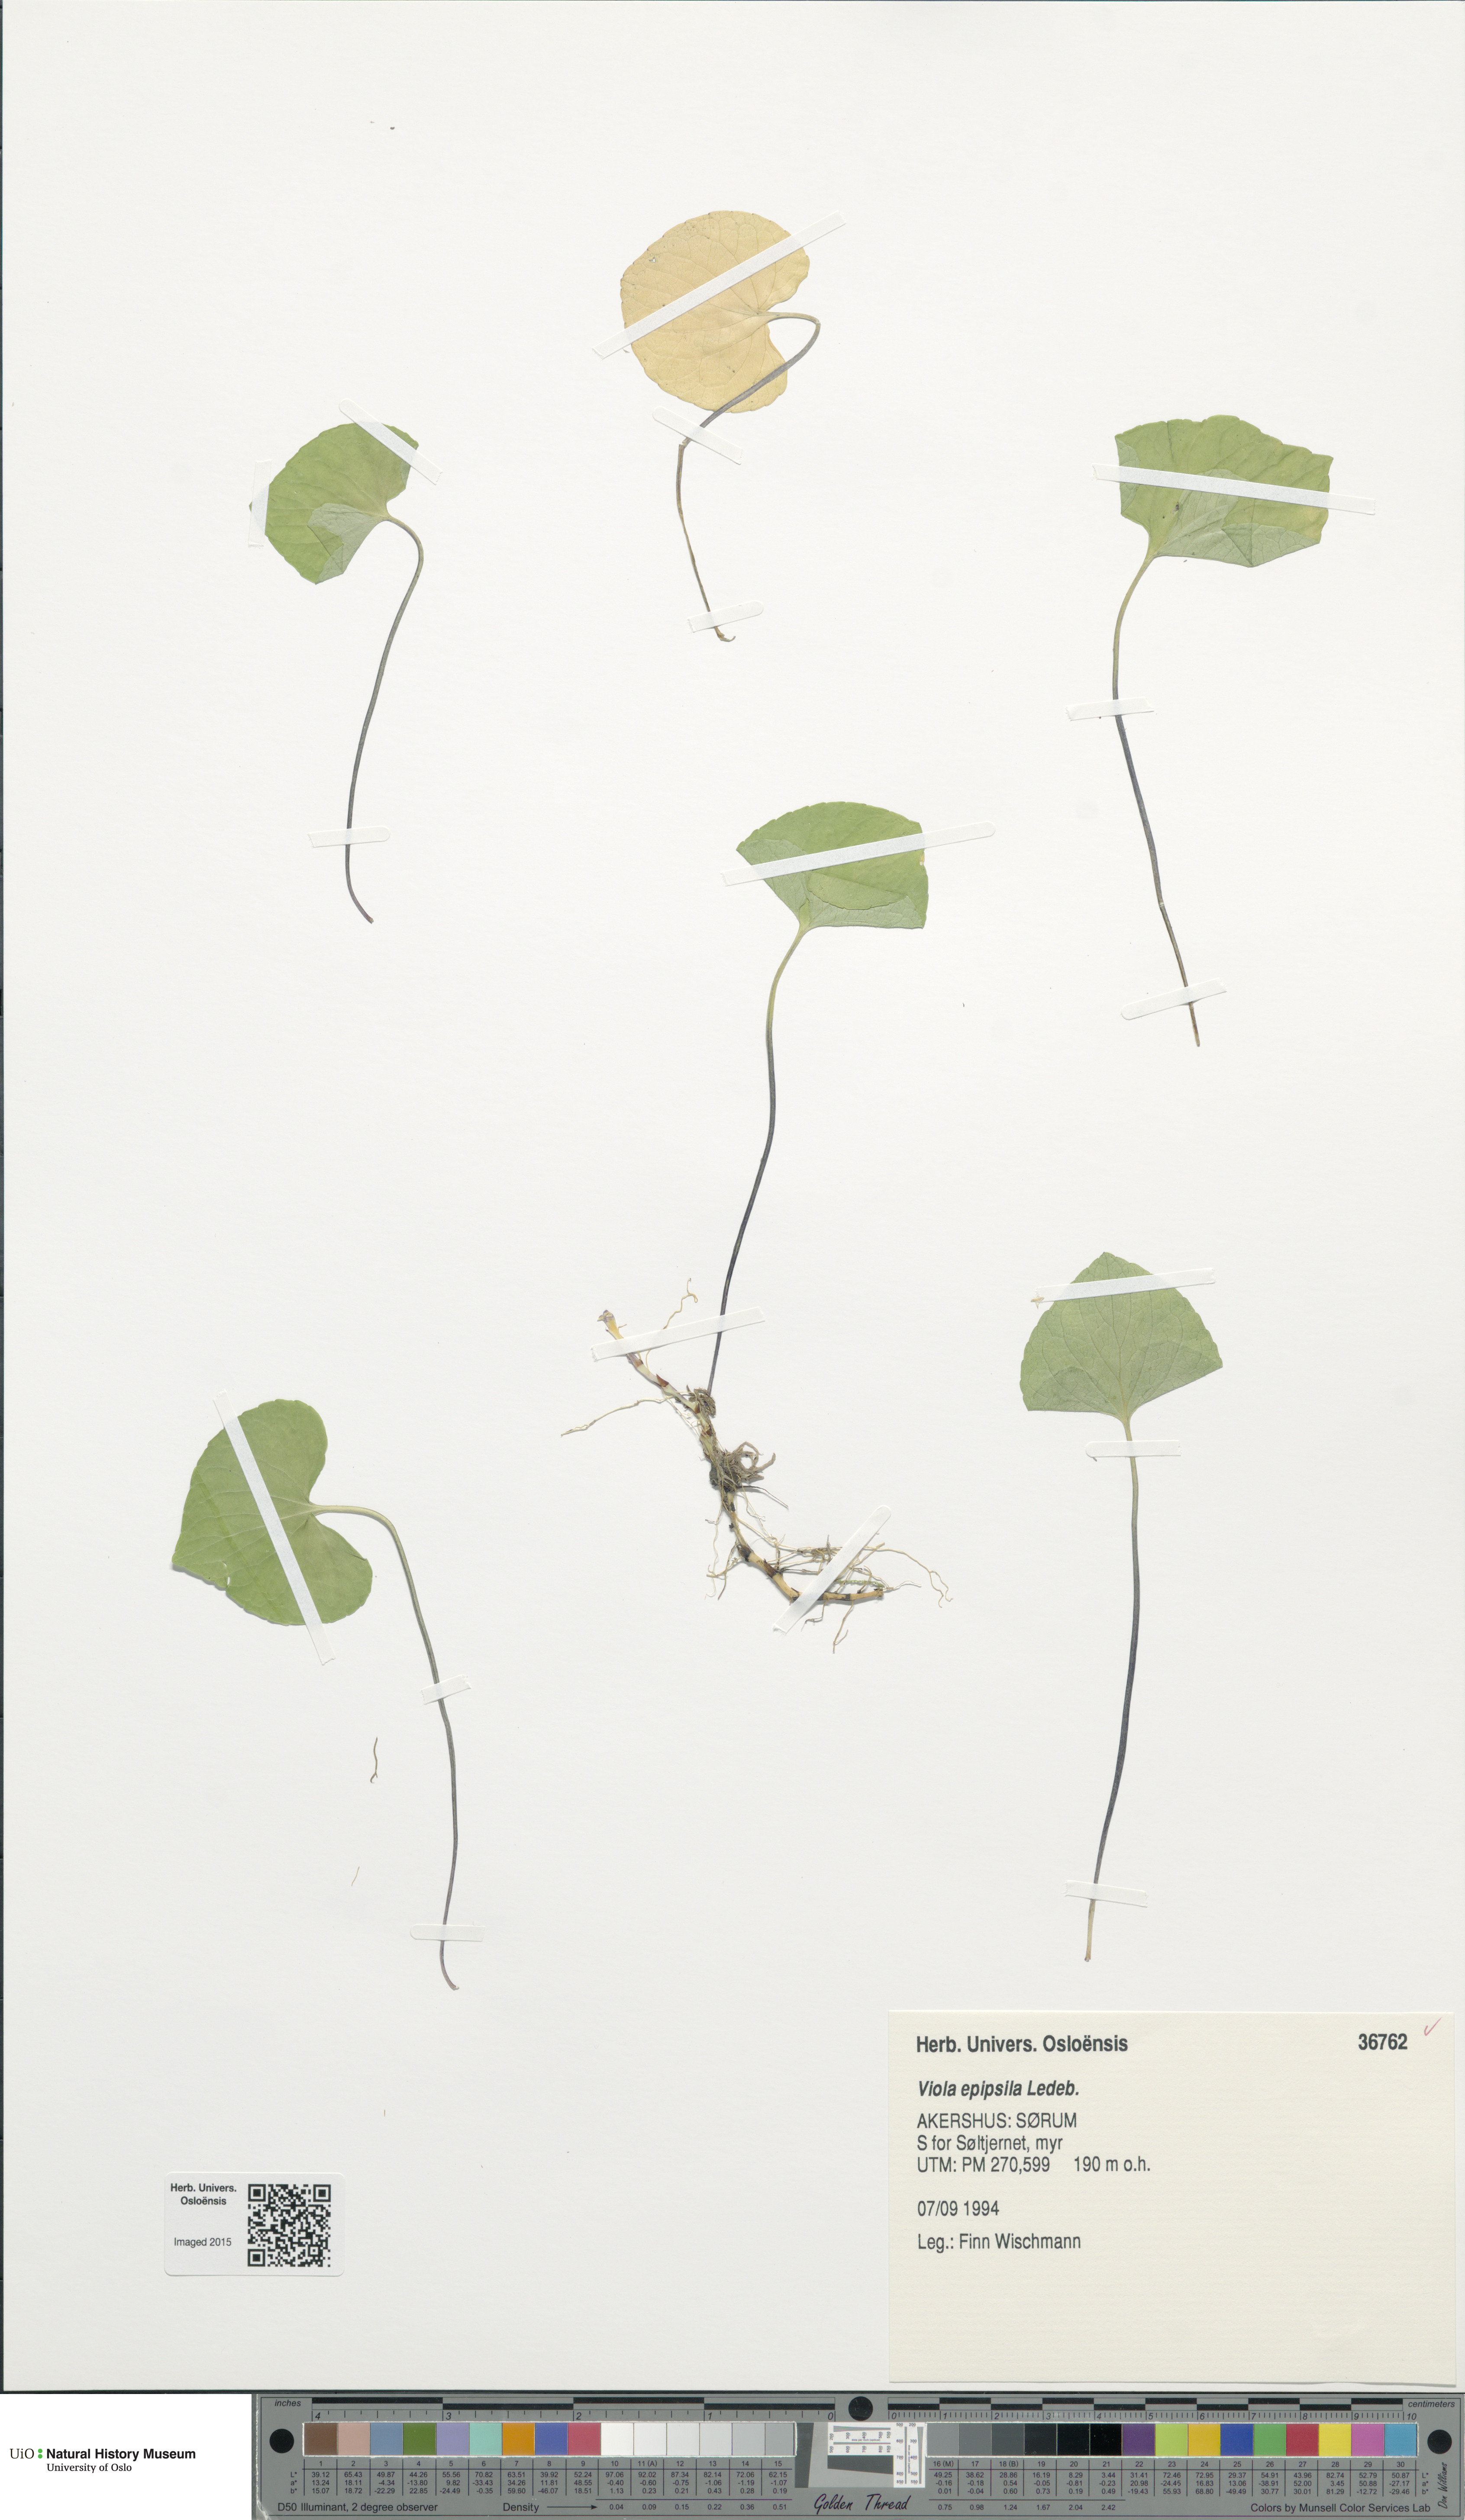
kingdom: Plantae
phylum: Tracheophyta
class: Magnoliopsida
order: Malpighiales
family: Violaceae
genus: Viola
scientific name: Viola epipsila
